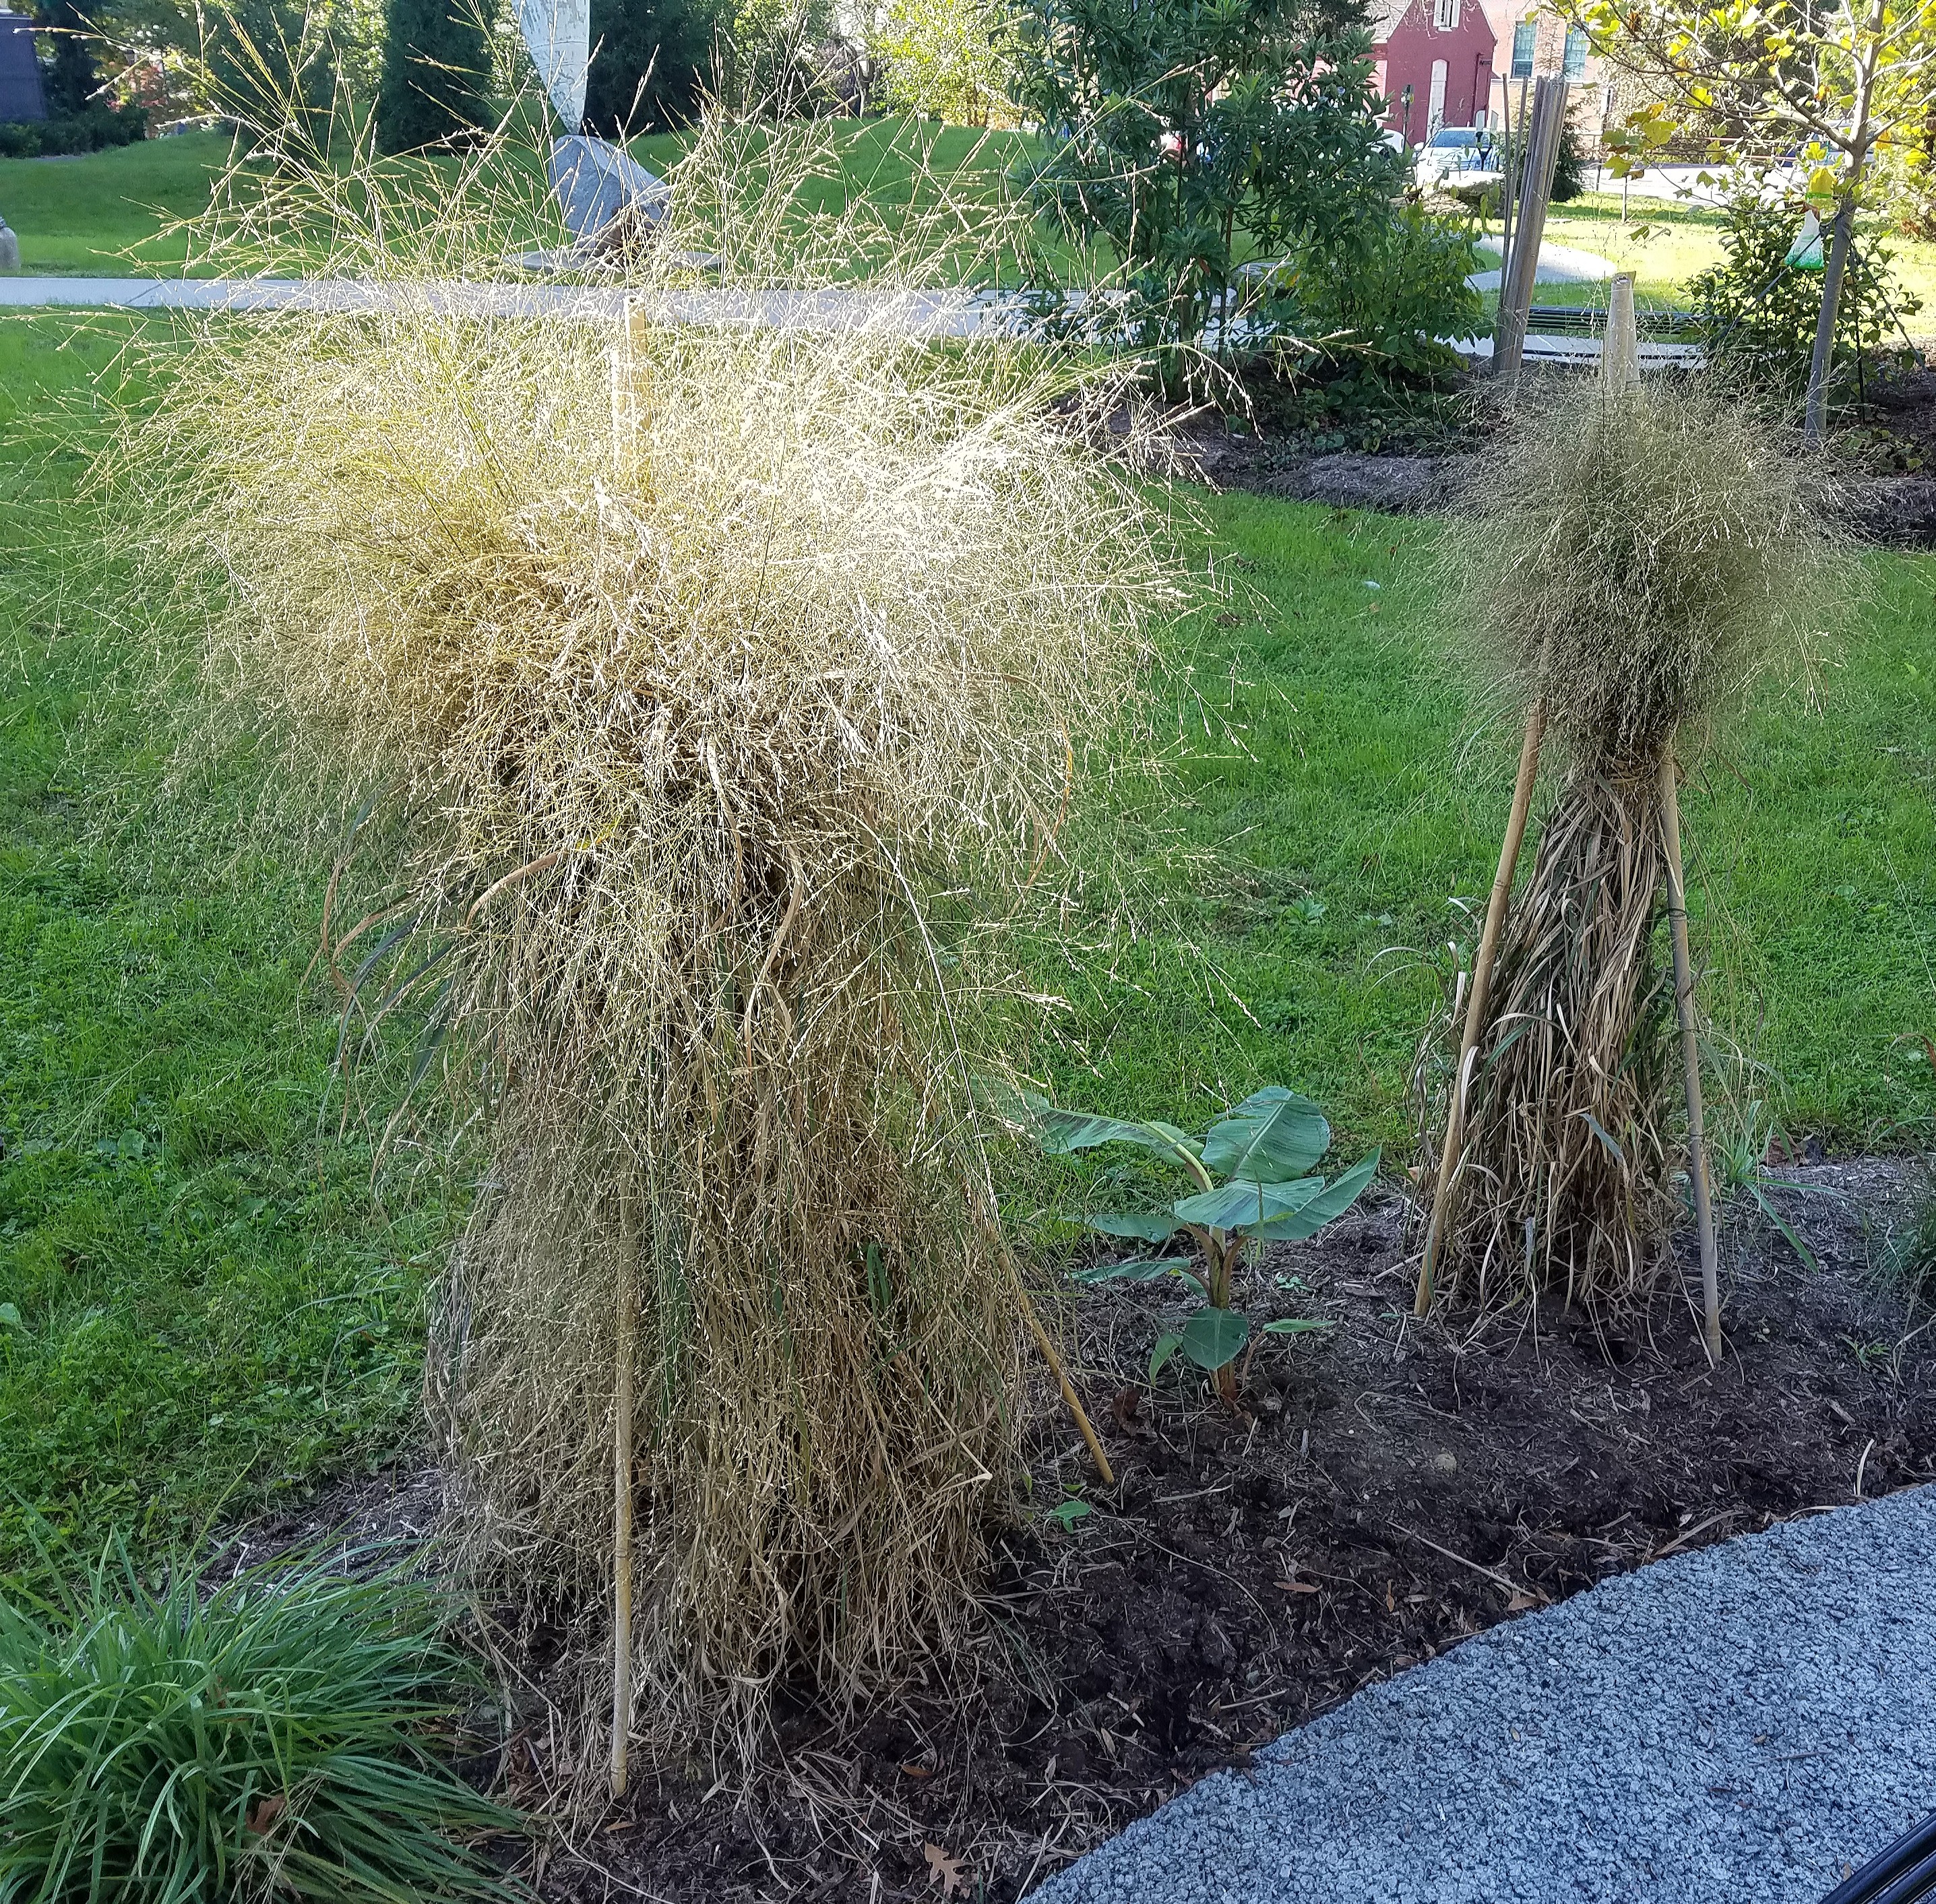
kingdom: Plantae
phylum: Tracheophyta
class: Liliopsida
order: Poales
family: Poaceae
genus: Panicum
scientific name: Panicum virgatum
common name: Switchgrass
